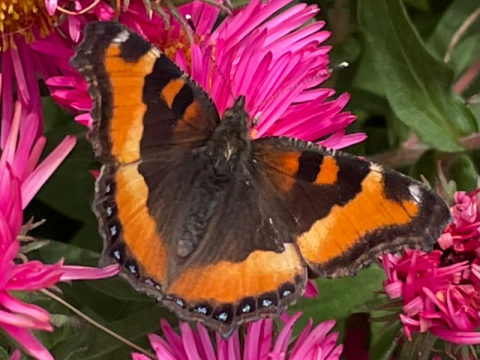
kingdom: Animalia
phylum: Arthropoda
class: Insecta
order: Lepidoptera
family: Nymphalidae
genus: Aglais
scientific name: Aglais milberti
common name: Milbert's Tortoiseshell
